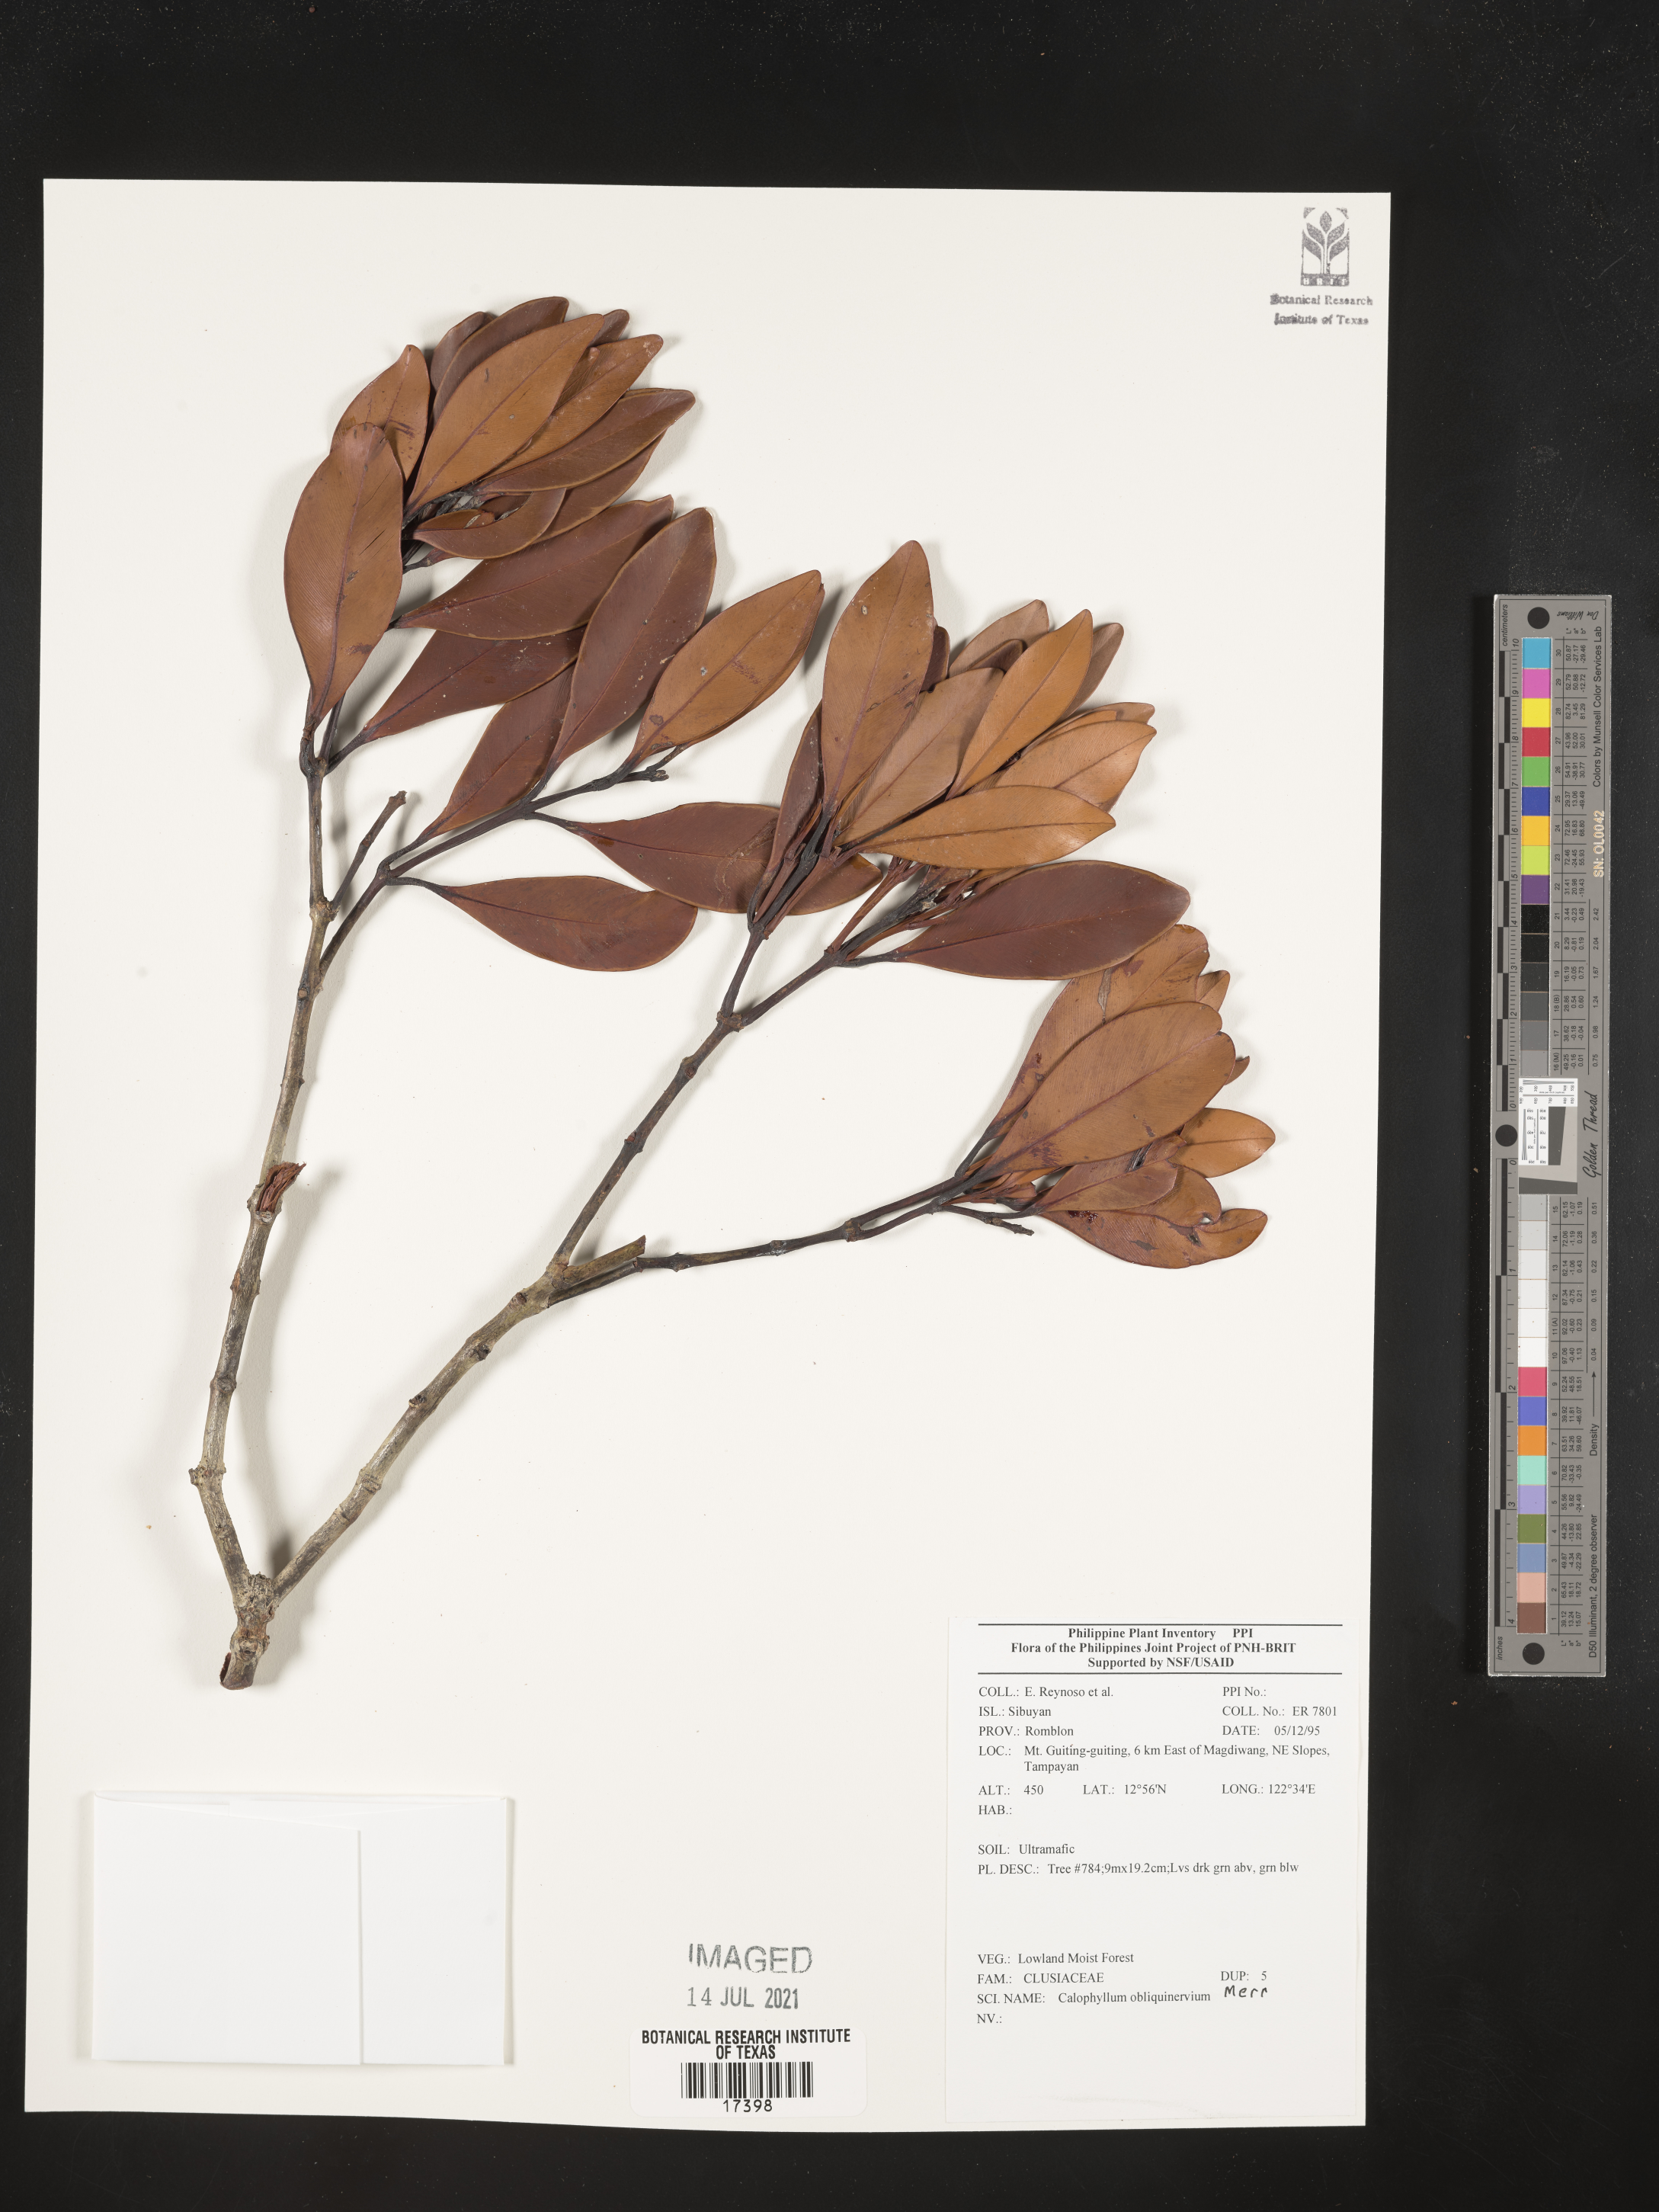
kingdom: Plantae
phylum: Tracheophyta
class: Magnoliopsida
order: Malpighiales
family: Calophyllaceae
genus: Calophyllum
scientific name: Calophyllum obliquinervium
